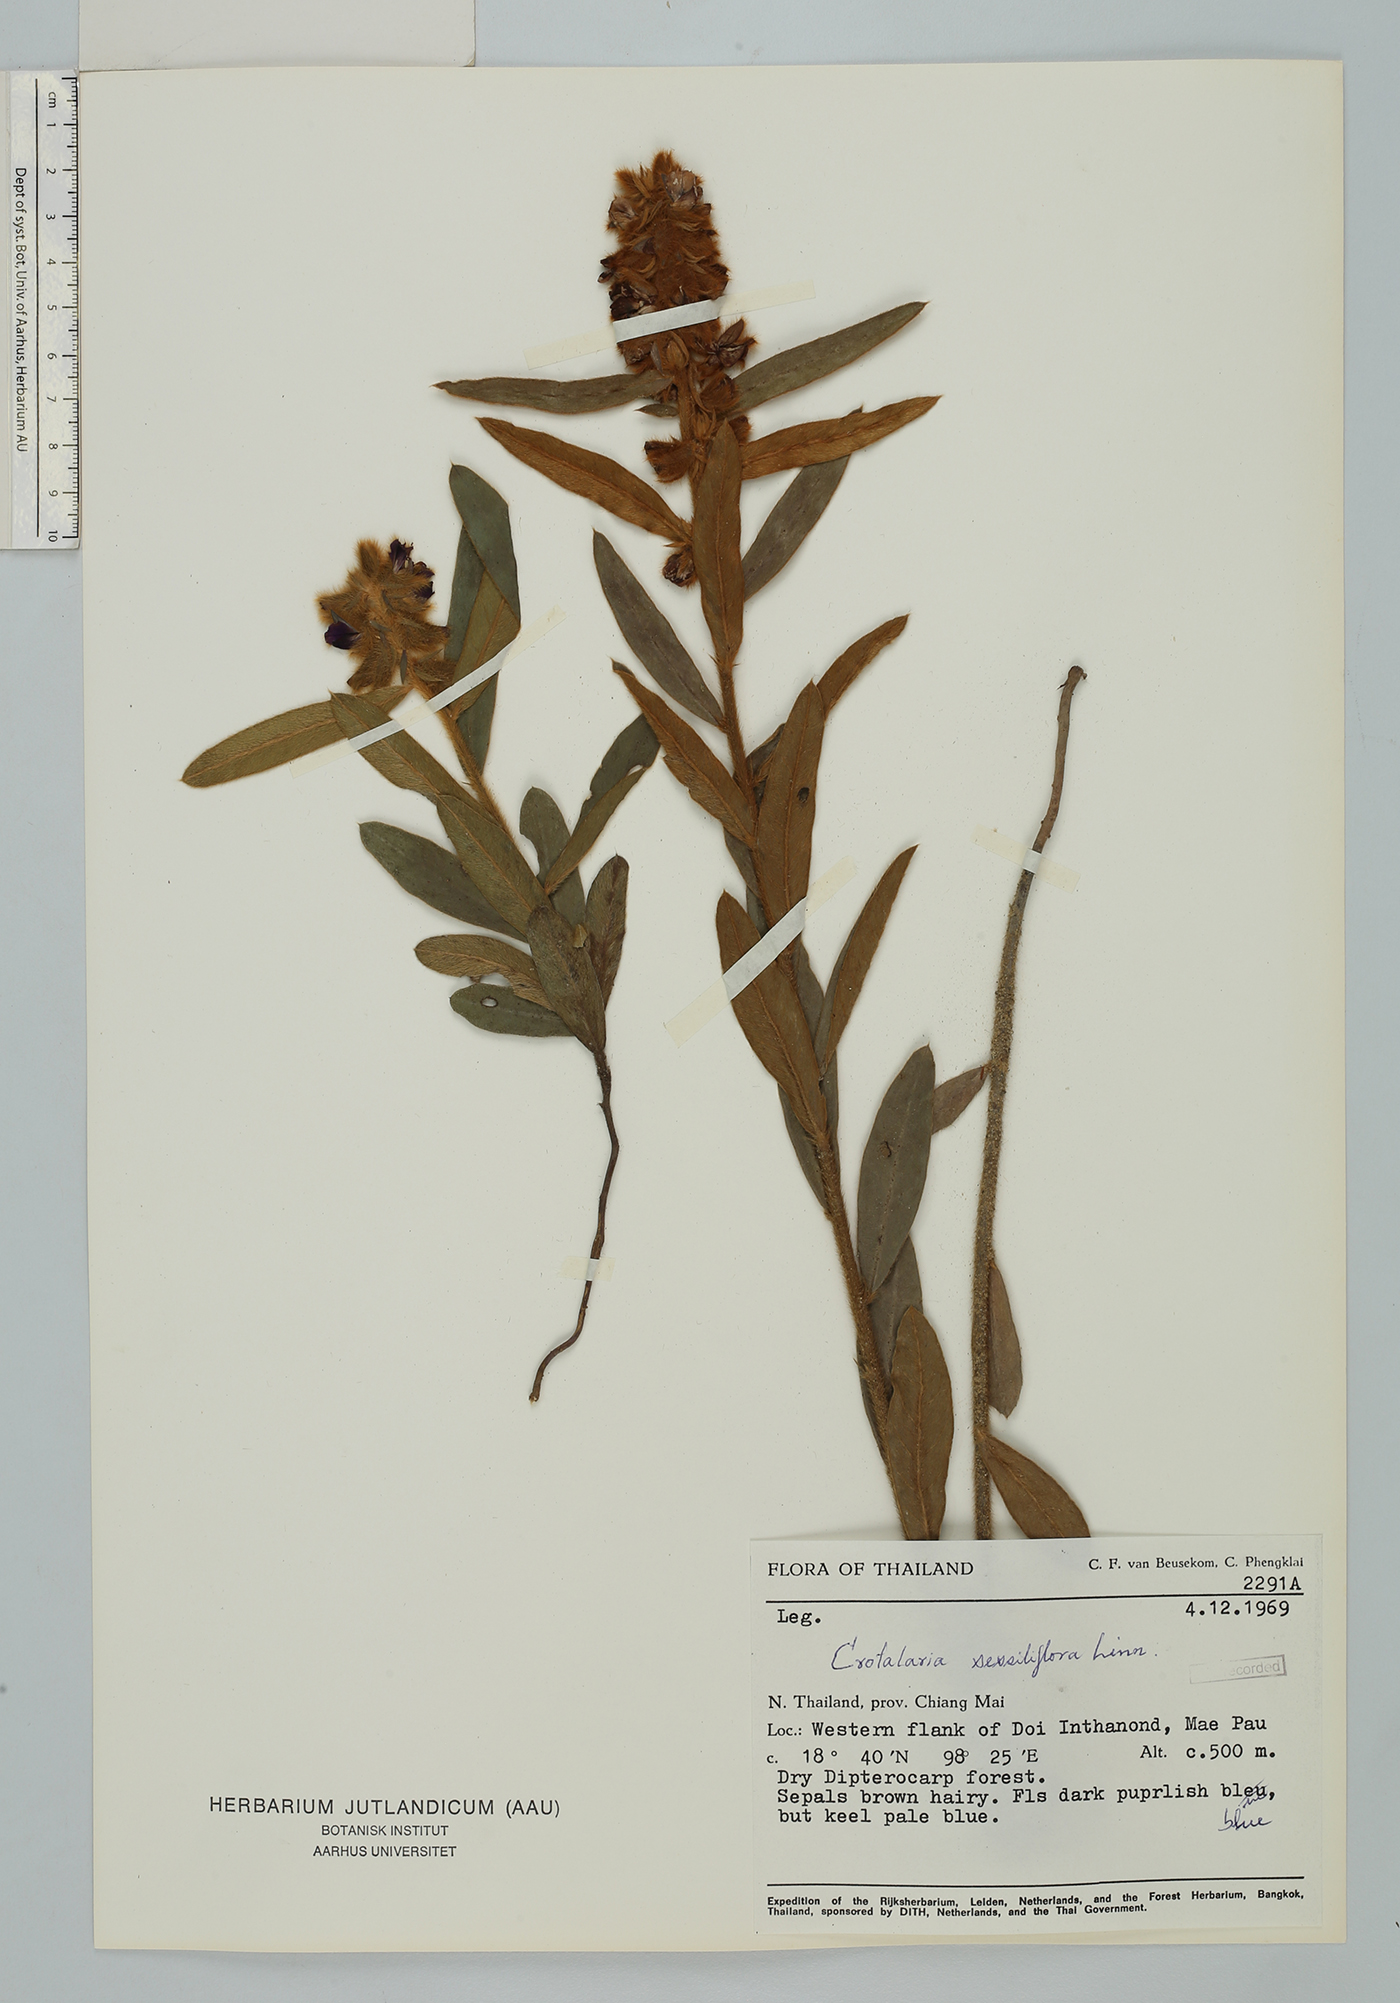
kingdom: Plantae
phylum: Tracheophyta
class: Magnoliopsida
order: Fabales
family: Fabaceae
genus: Crotalaria
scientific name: Crotalaria sessiliflora
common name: Rattlebox
